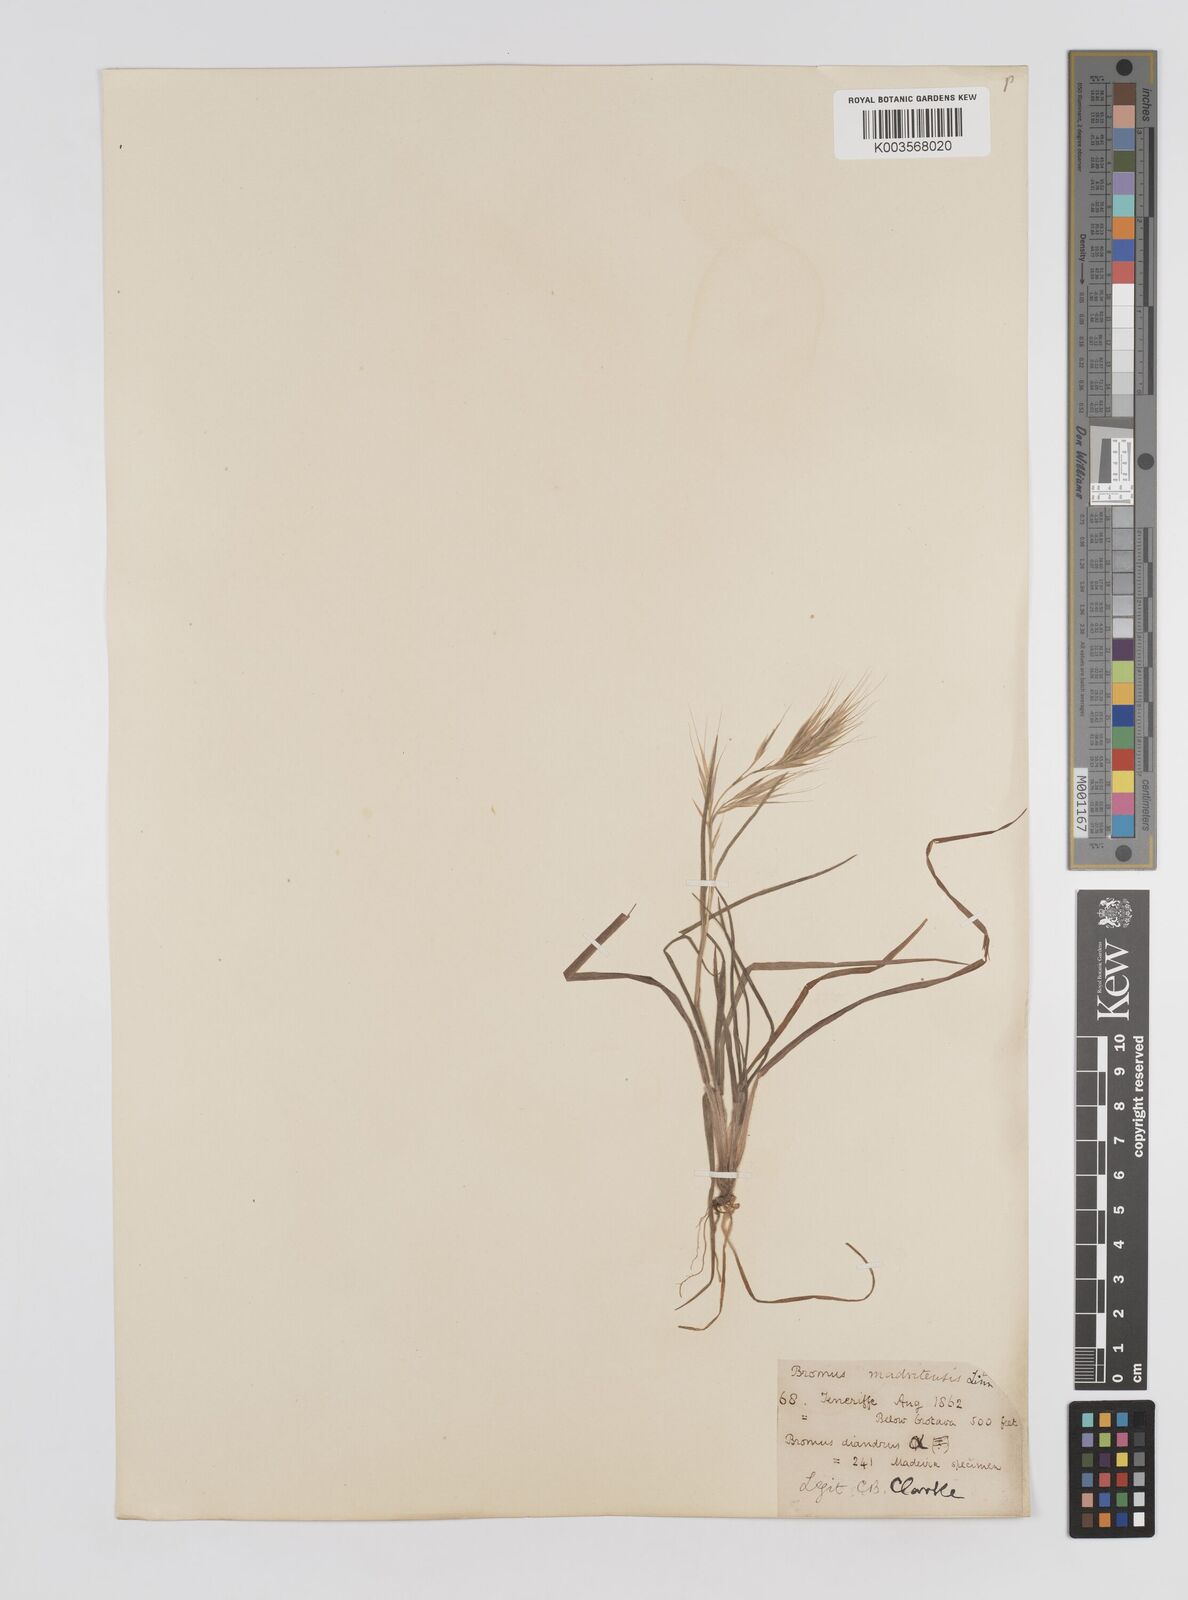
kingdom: Plantae
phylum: Tracheophyta
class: Liliopsida
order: Poales
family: Poaceae
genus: Bromus
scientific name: Bromus
